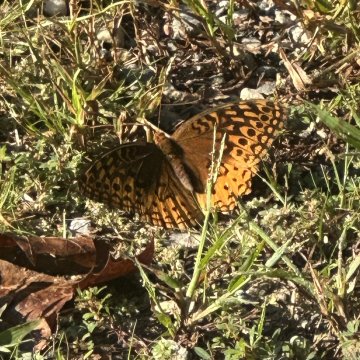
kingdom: Animalia
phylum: Arthropoda
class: Insecta
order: Lepidoptera
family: Nymphalidae
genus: Speyeria
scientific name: Speyeria cybele
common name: Great Spangled Fritillary
